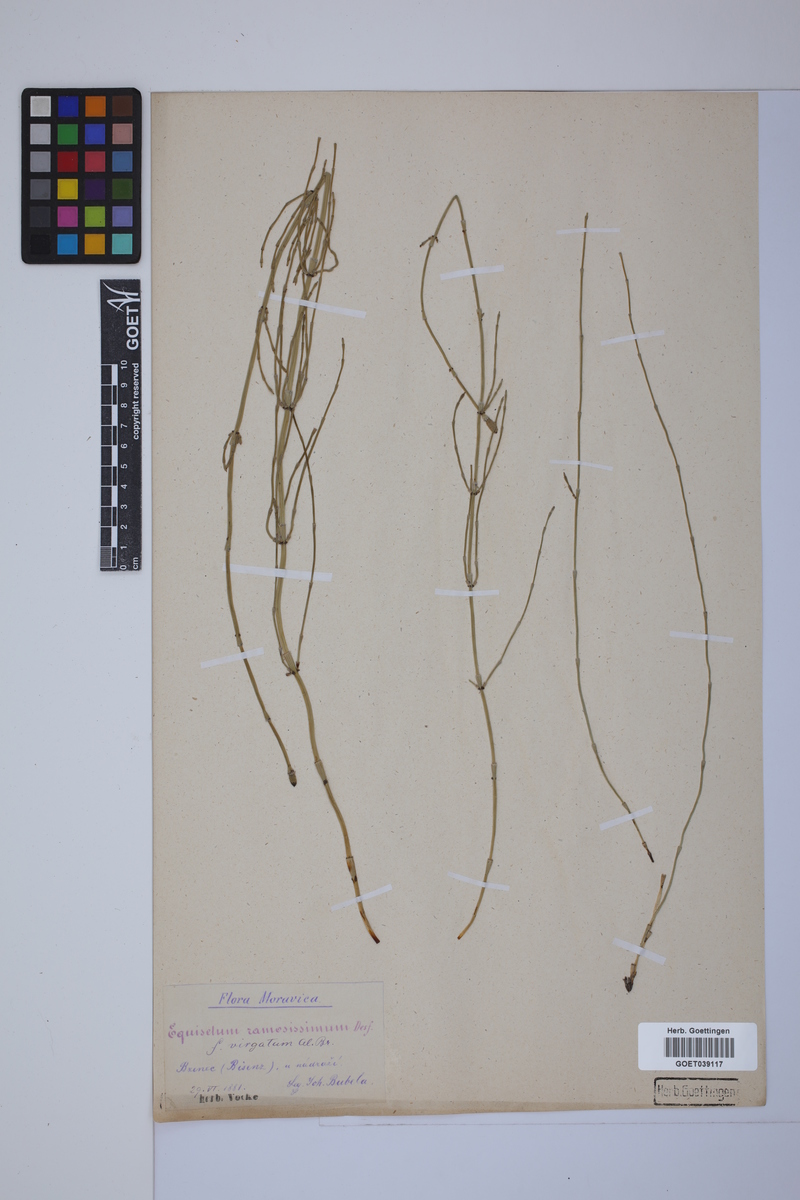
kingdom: Plantae
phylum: Tracheophyta
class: Polypodiopsida
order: Equisetales
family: Equisetaceae
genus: Equisetum
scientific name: Equisetum giganteum
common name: Giant horsetail
